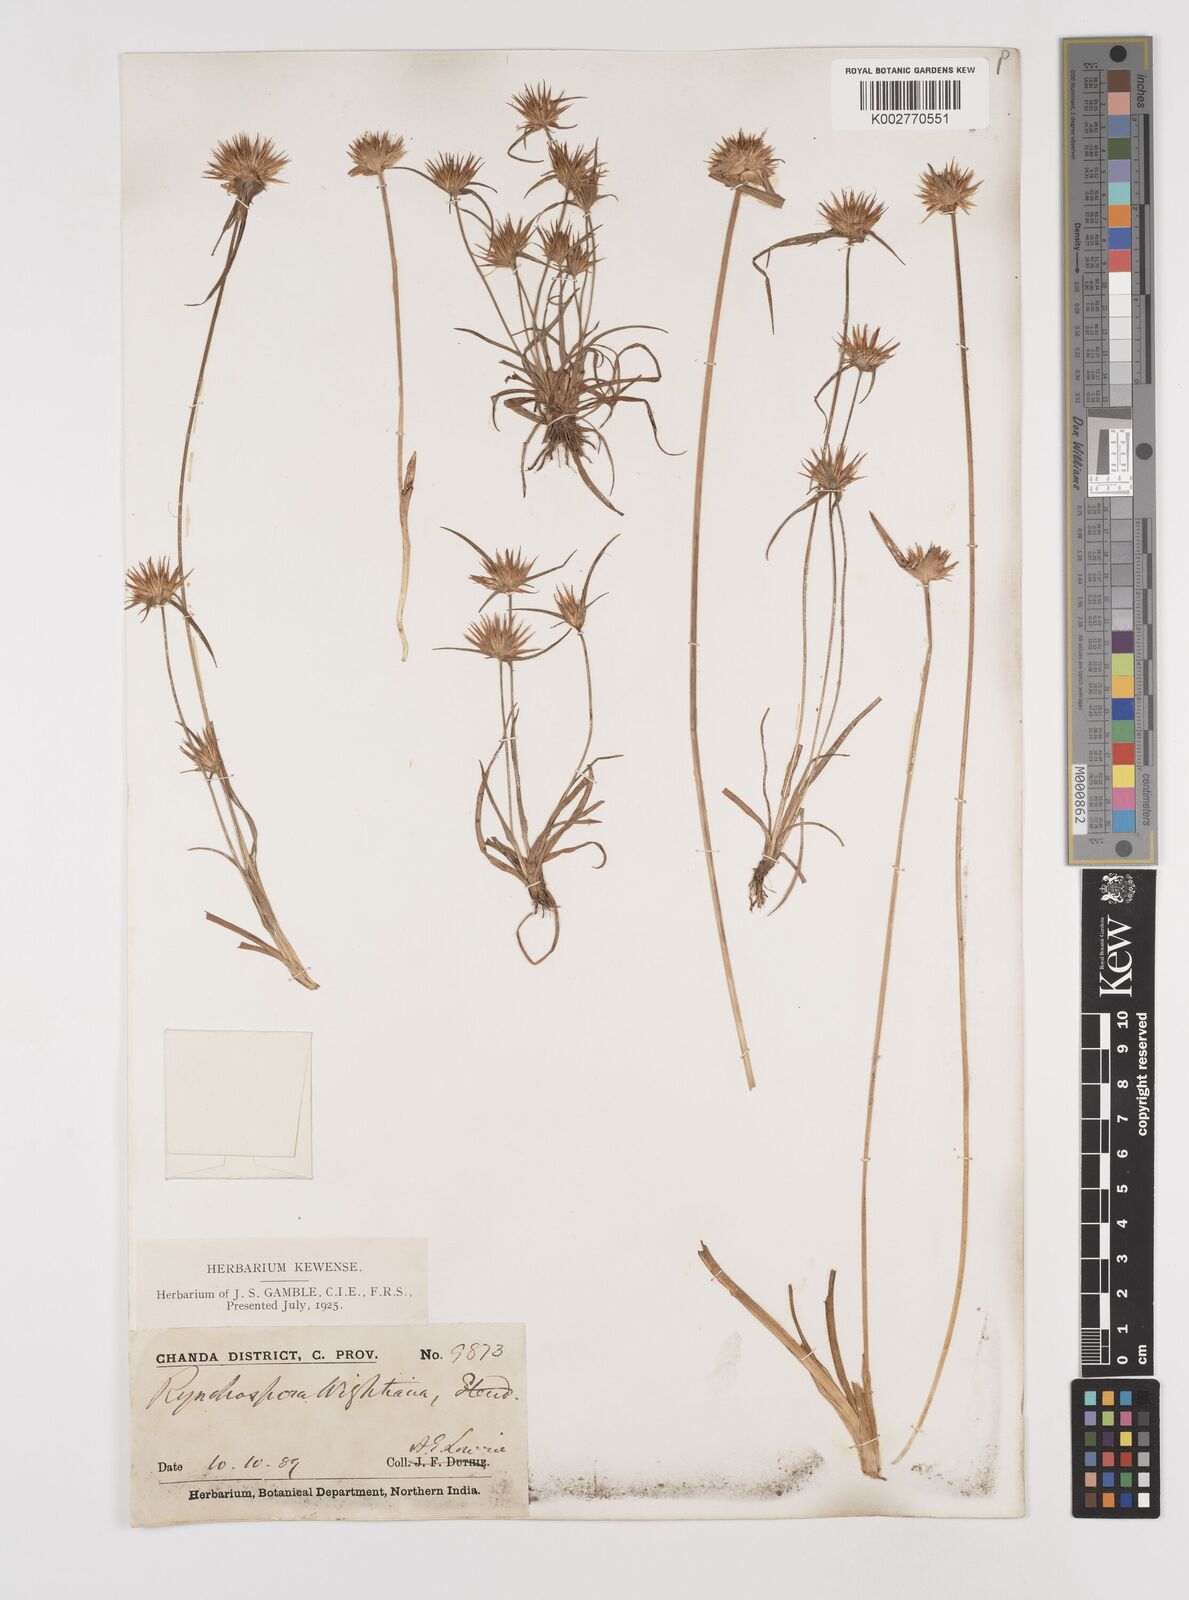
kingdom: Plantae
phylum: Tracheophyta
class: Liliopsida
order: Poales
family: Cyperaceae
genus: Rhynchospora
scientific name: Rhynchospora longisetis
